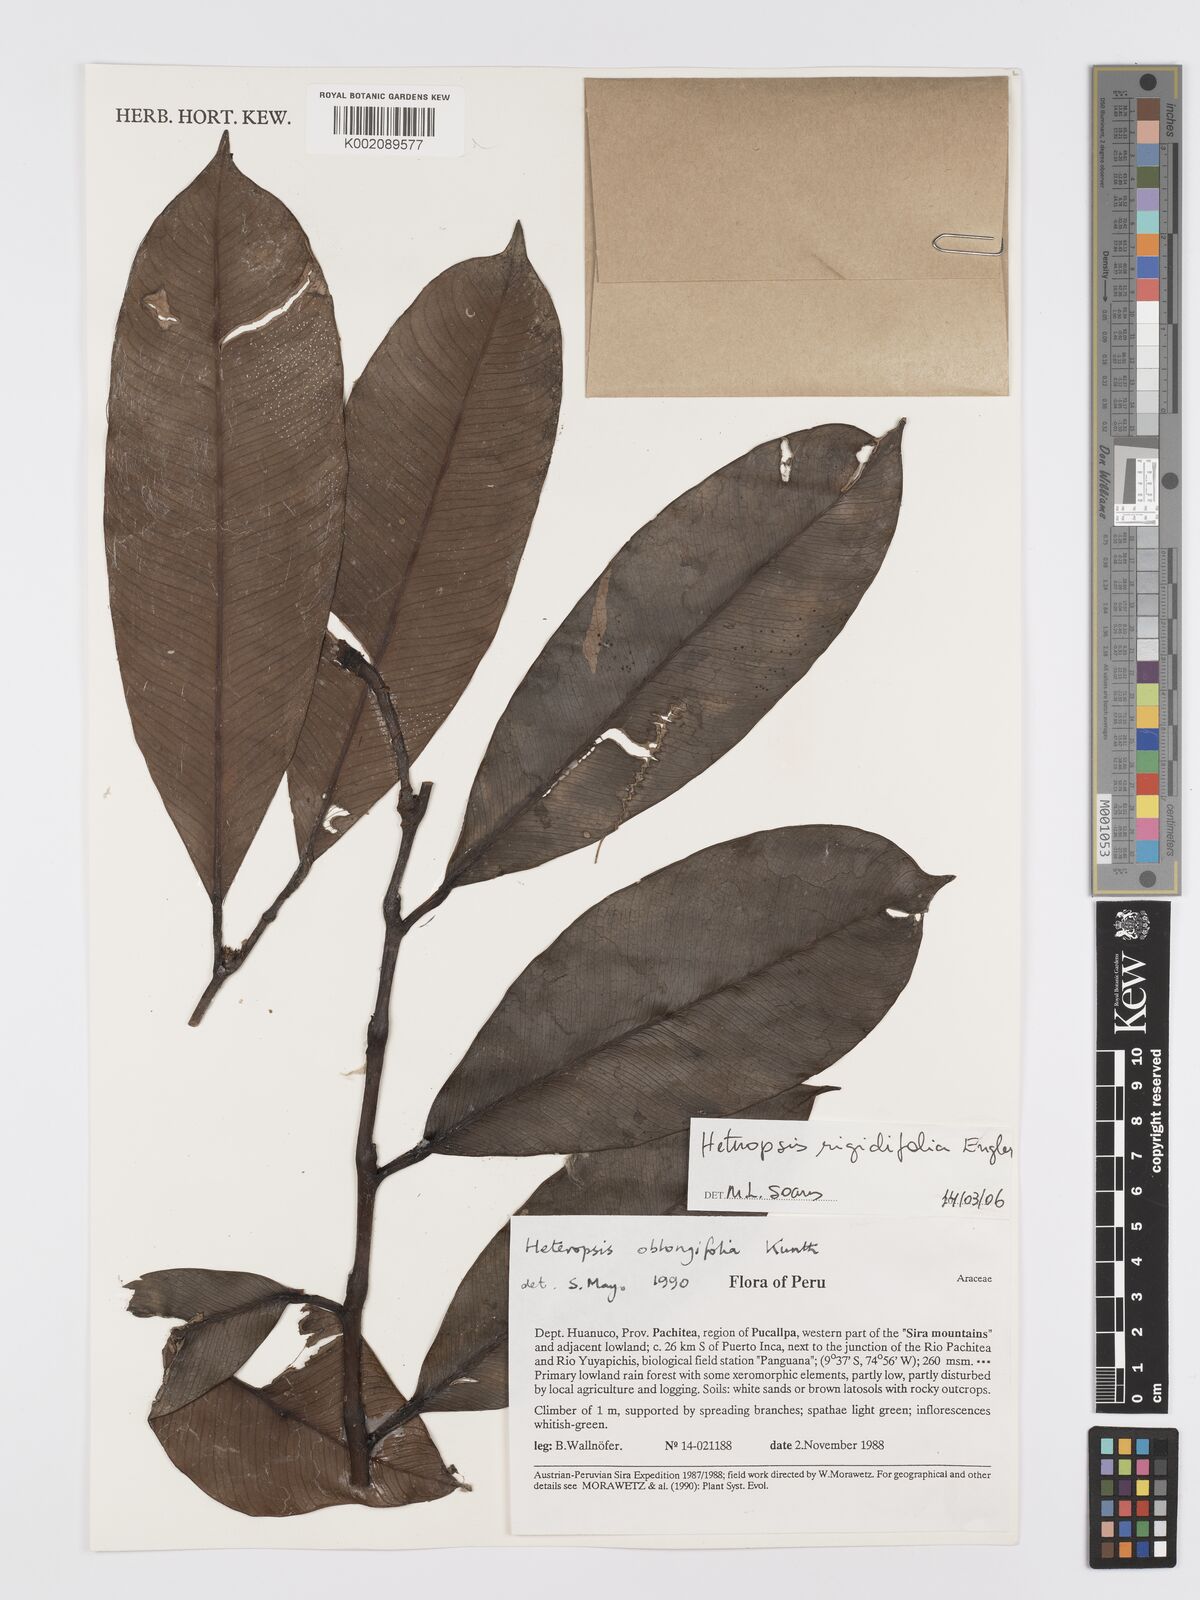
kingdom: Plantae
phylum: Tracheophyta
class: Liliopsida
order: Alismatales
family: Araceae
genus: Heteropsis
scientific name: Heteropsis rigidifolia
